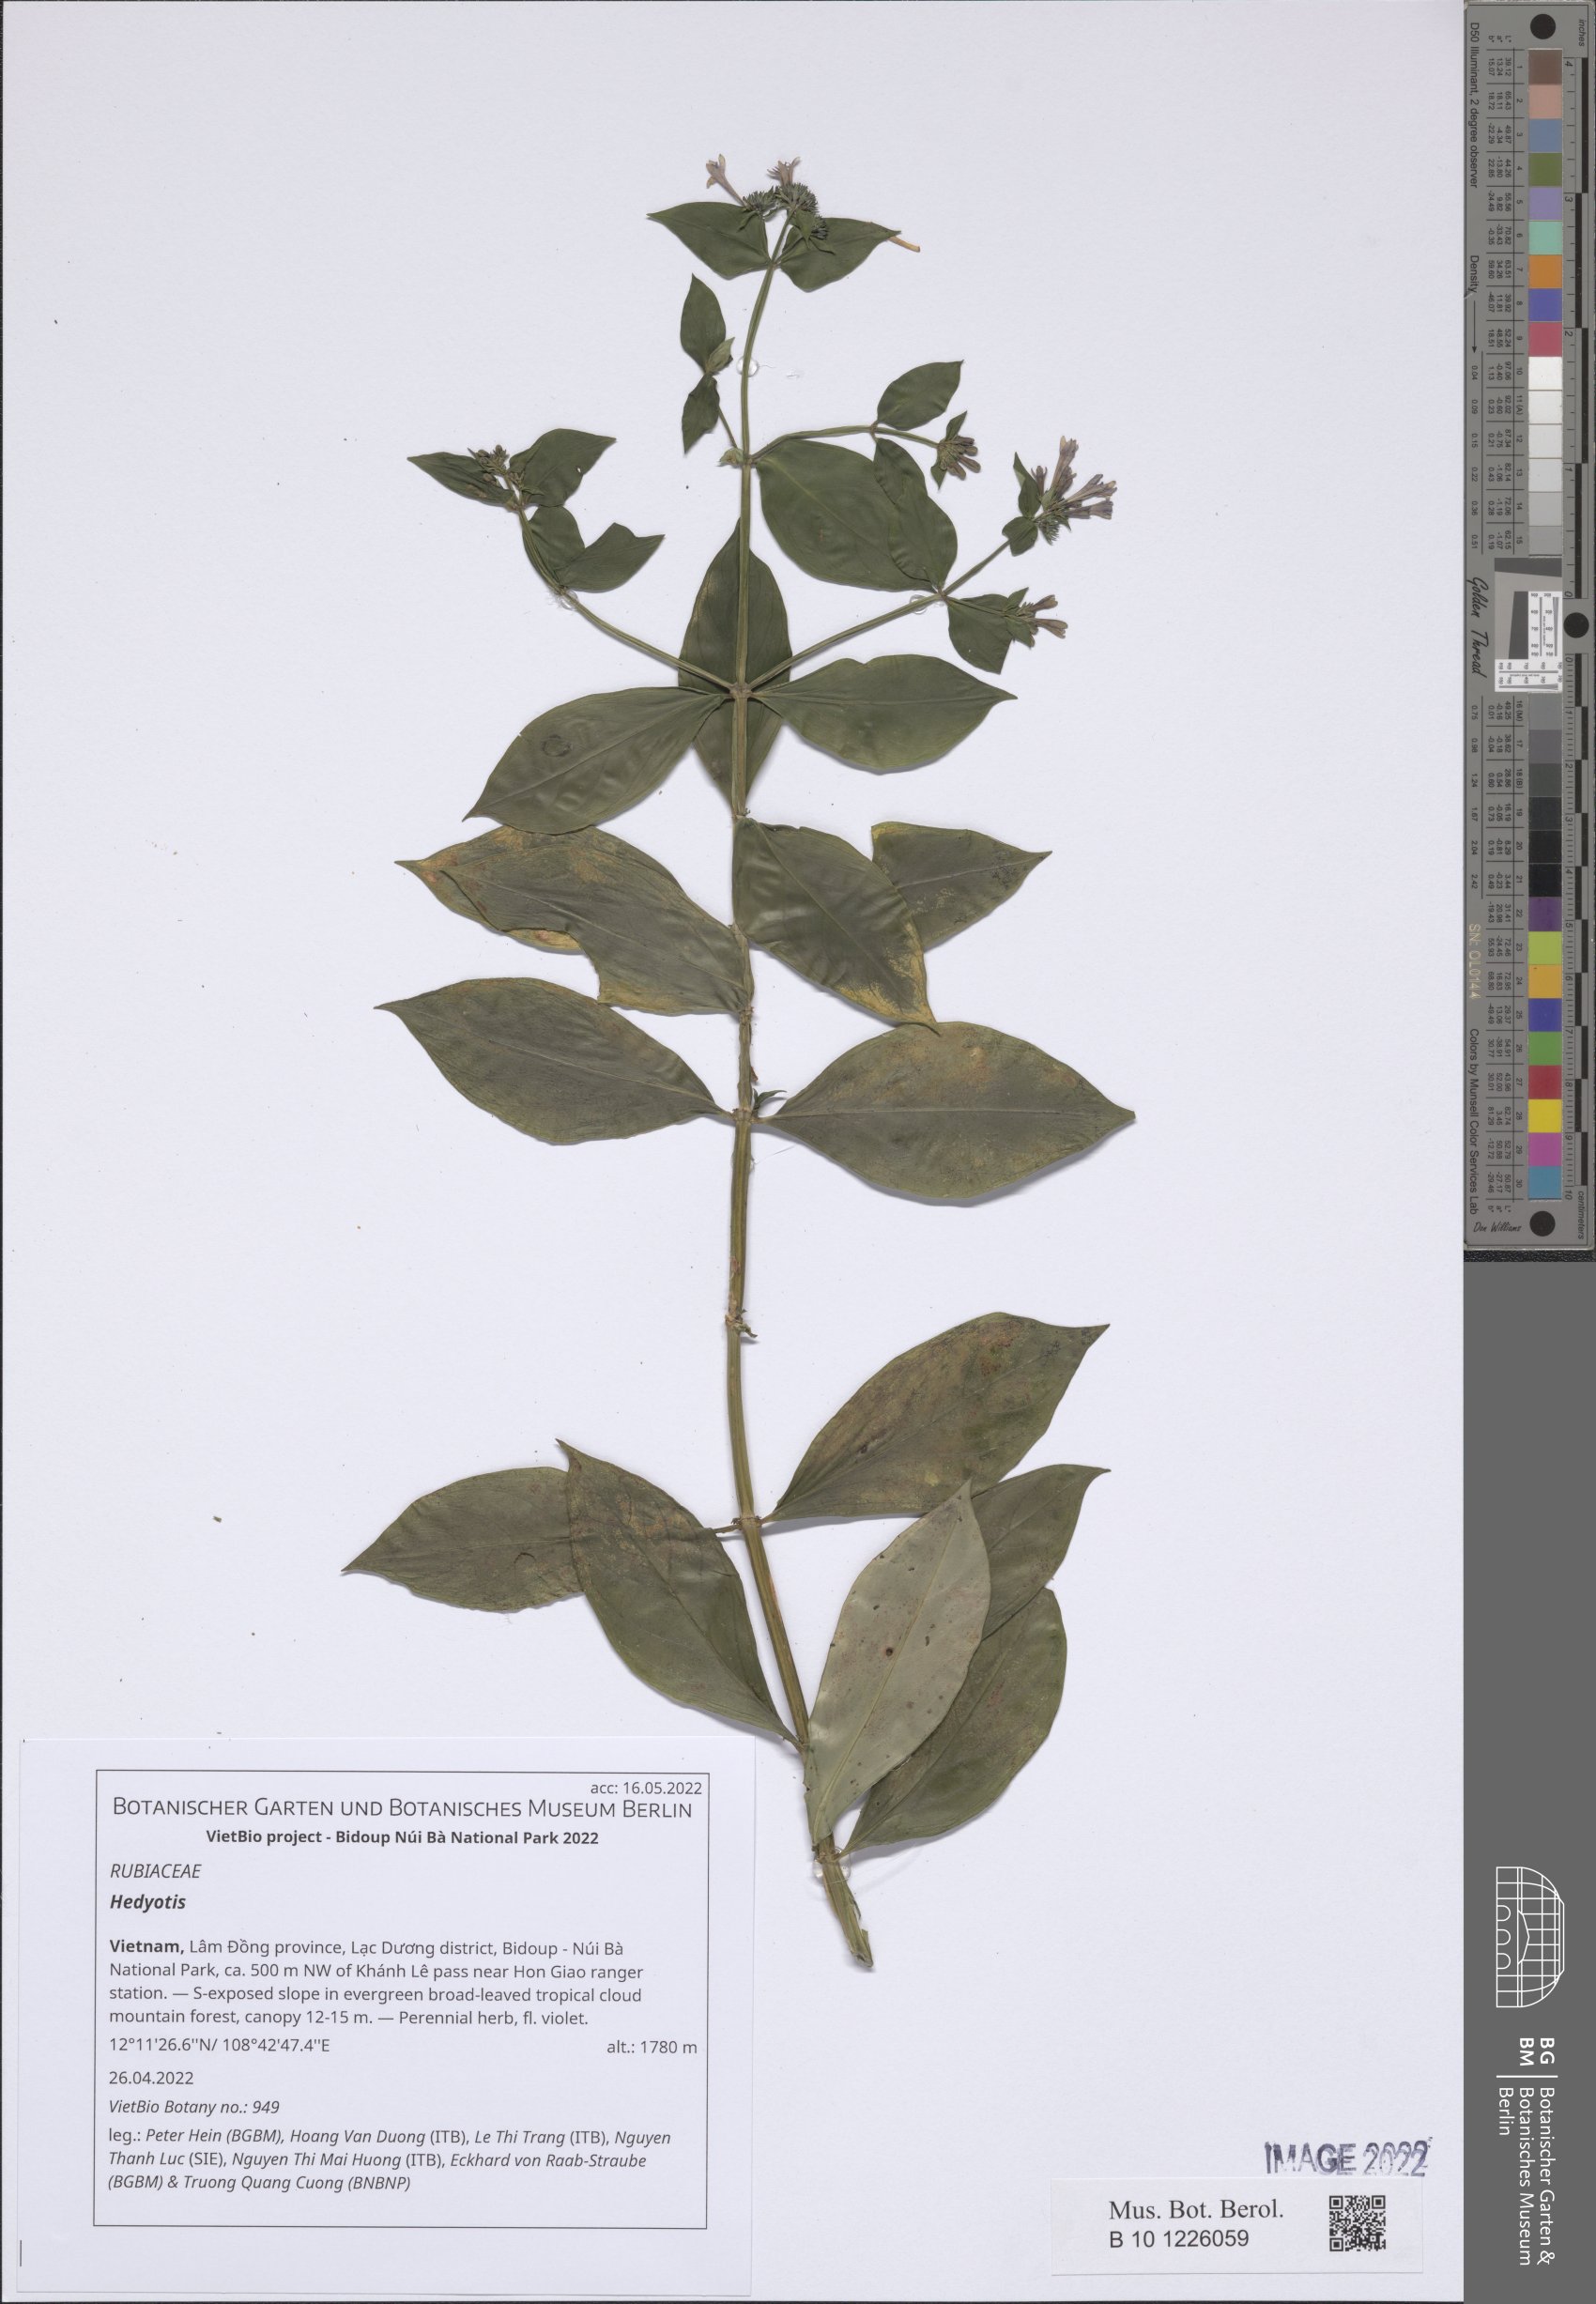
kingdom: Plantae
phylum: Tracheophyta
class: Magnoliopsida
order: Gentianales
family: Rubiaceae
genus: Hedyotis
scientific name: Hedyotis
